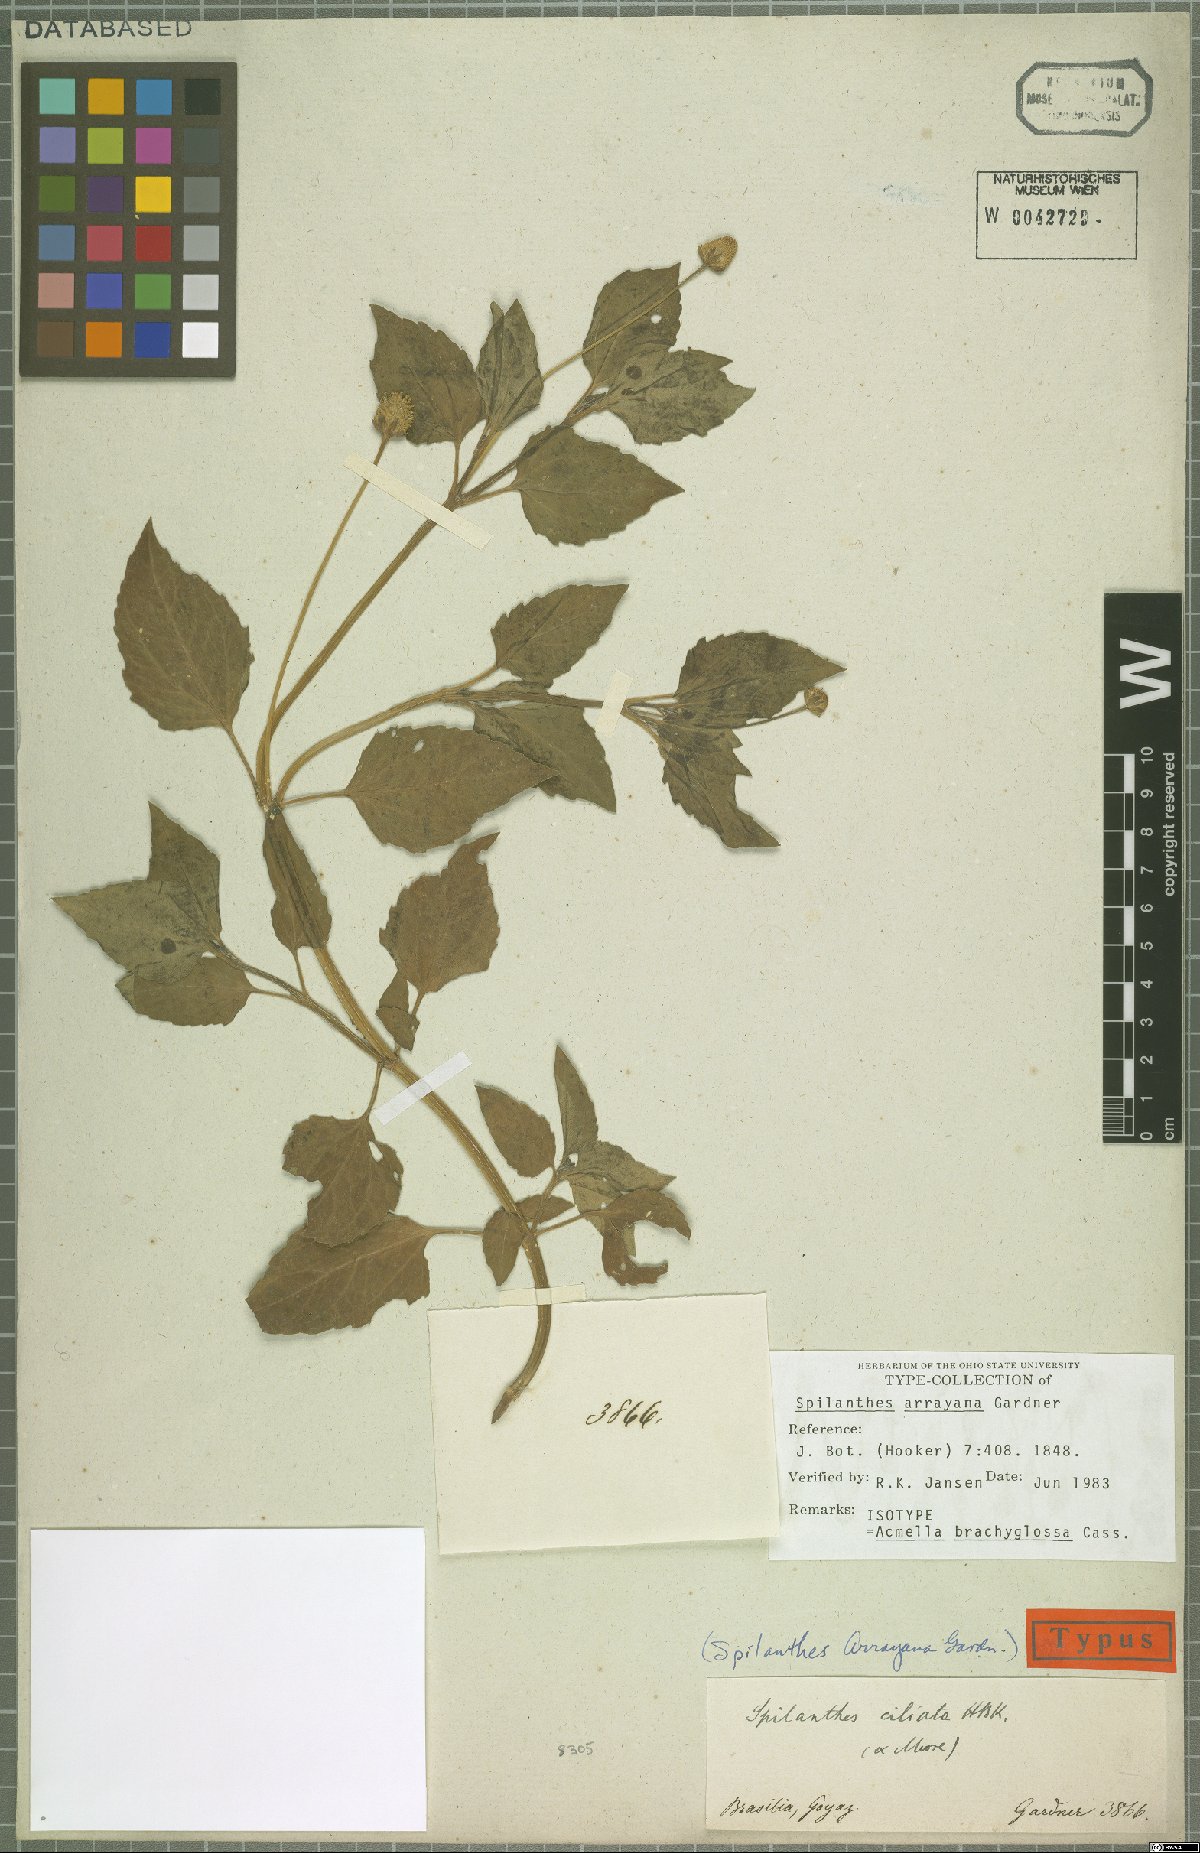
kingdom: Plantae
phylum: Tracheophyta
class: Magnoliopsida
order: Asterales
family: Asteraceae
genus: Acmella
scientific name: Acmella brachyglossa
